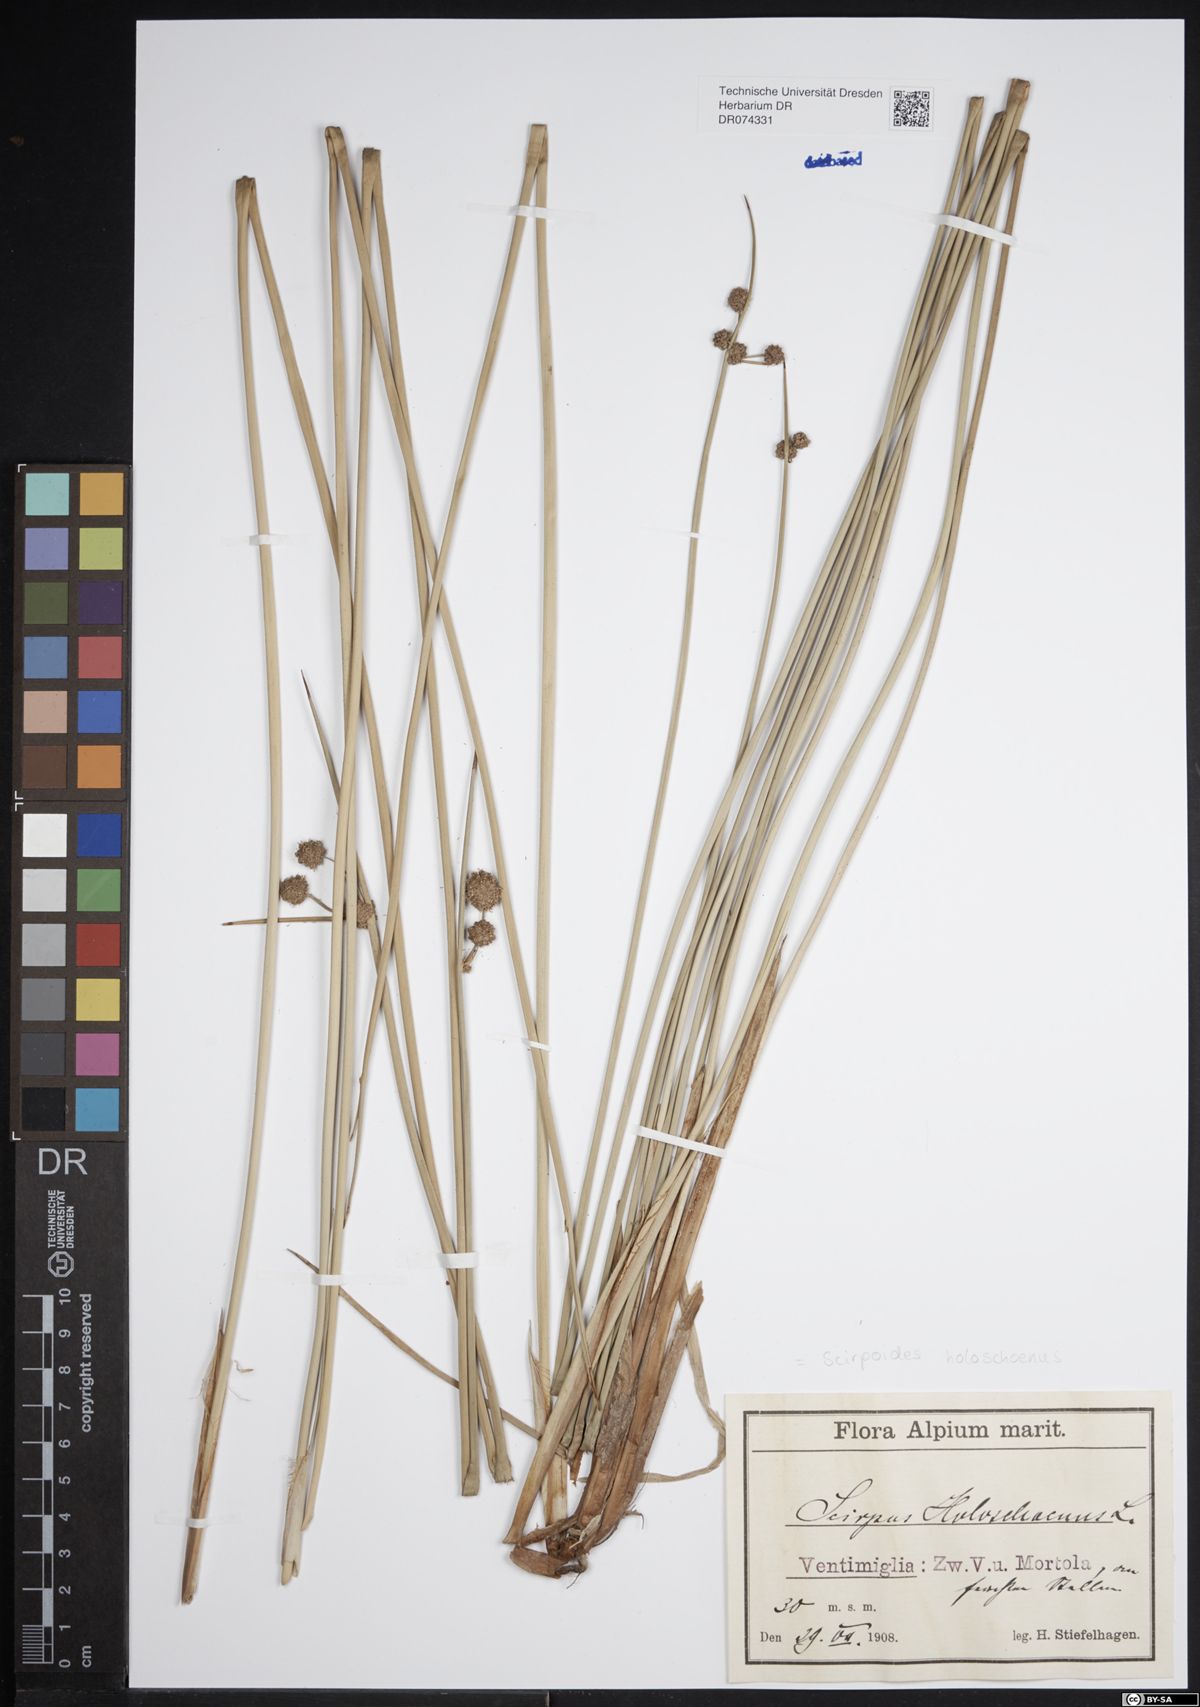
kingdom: Plantae
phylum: Tracheophyta
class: Liliopsida
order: Poales
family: Cyperaceae
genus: Scirpoides
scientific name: Scirpoides holoschoenus
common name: Round-headed club-rush
